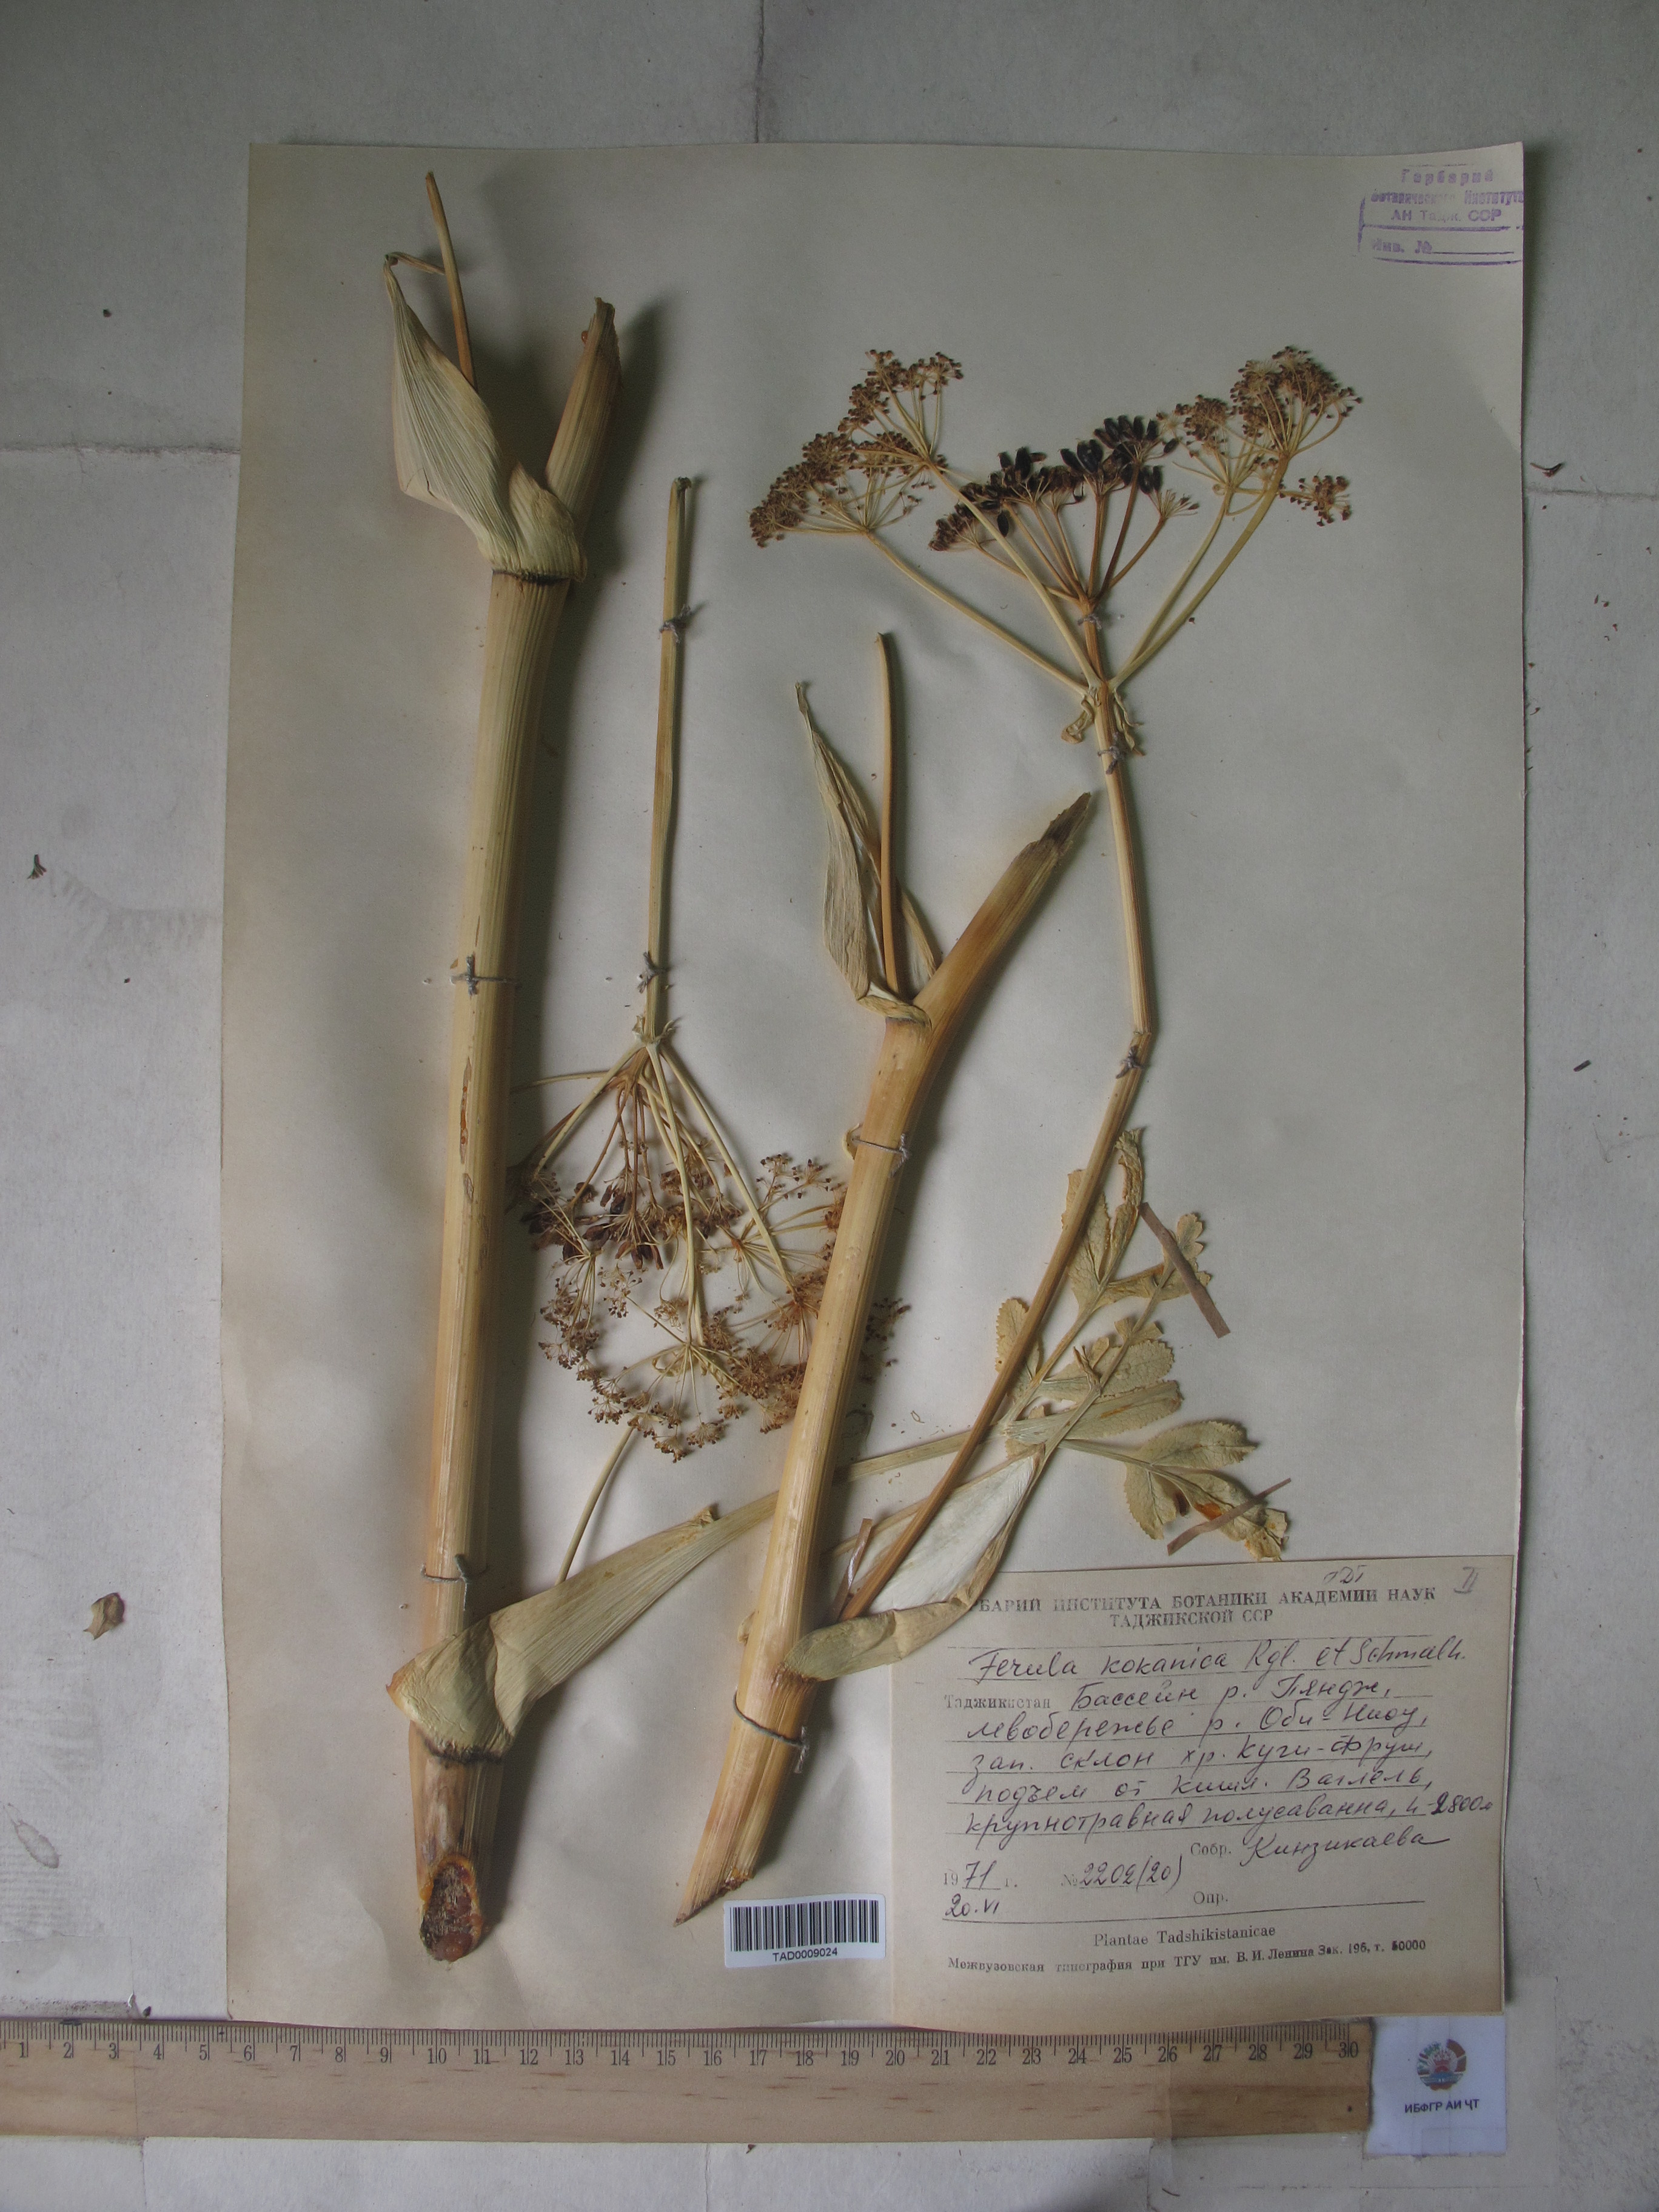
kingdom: Plantae
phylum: Tracheophyta
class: Magnoliopsida
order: Apiales
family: Apiaceae
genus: Ferula
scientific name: Ferula kokanica
